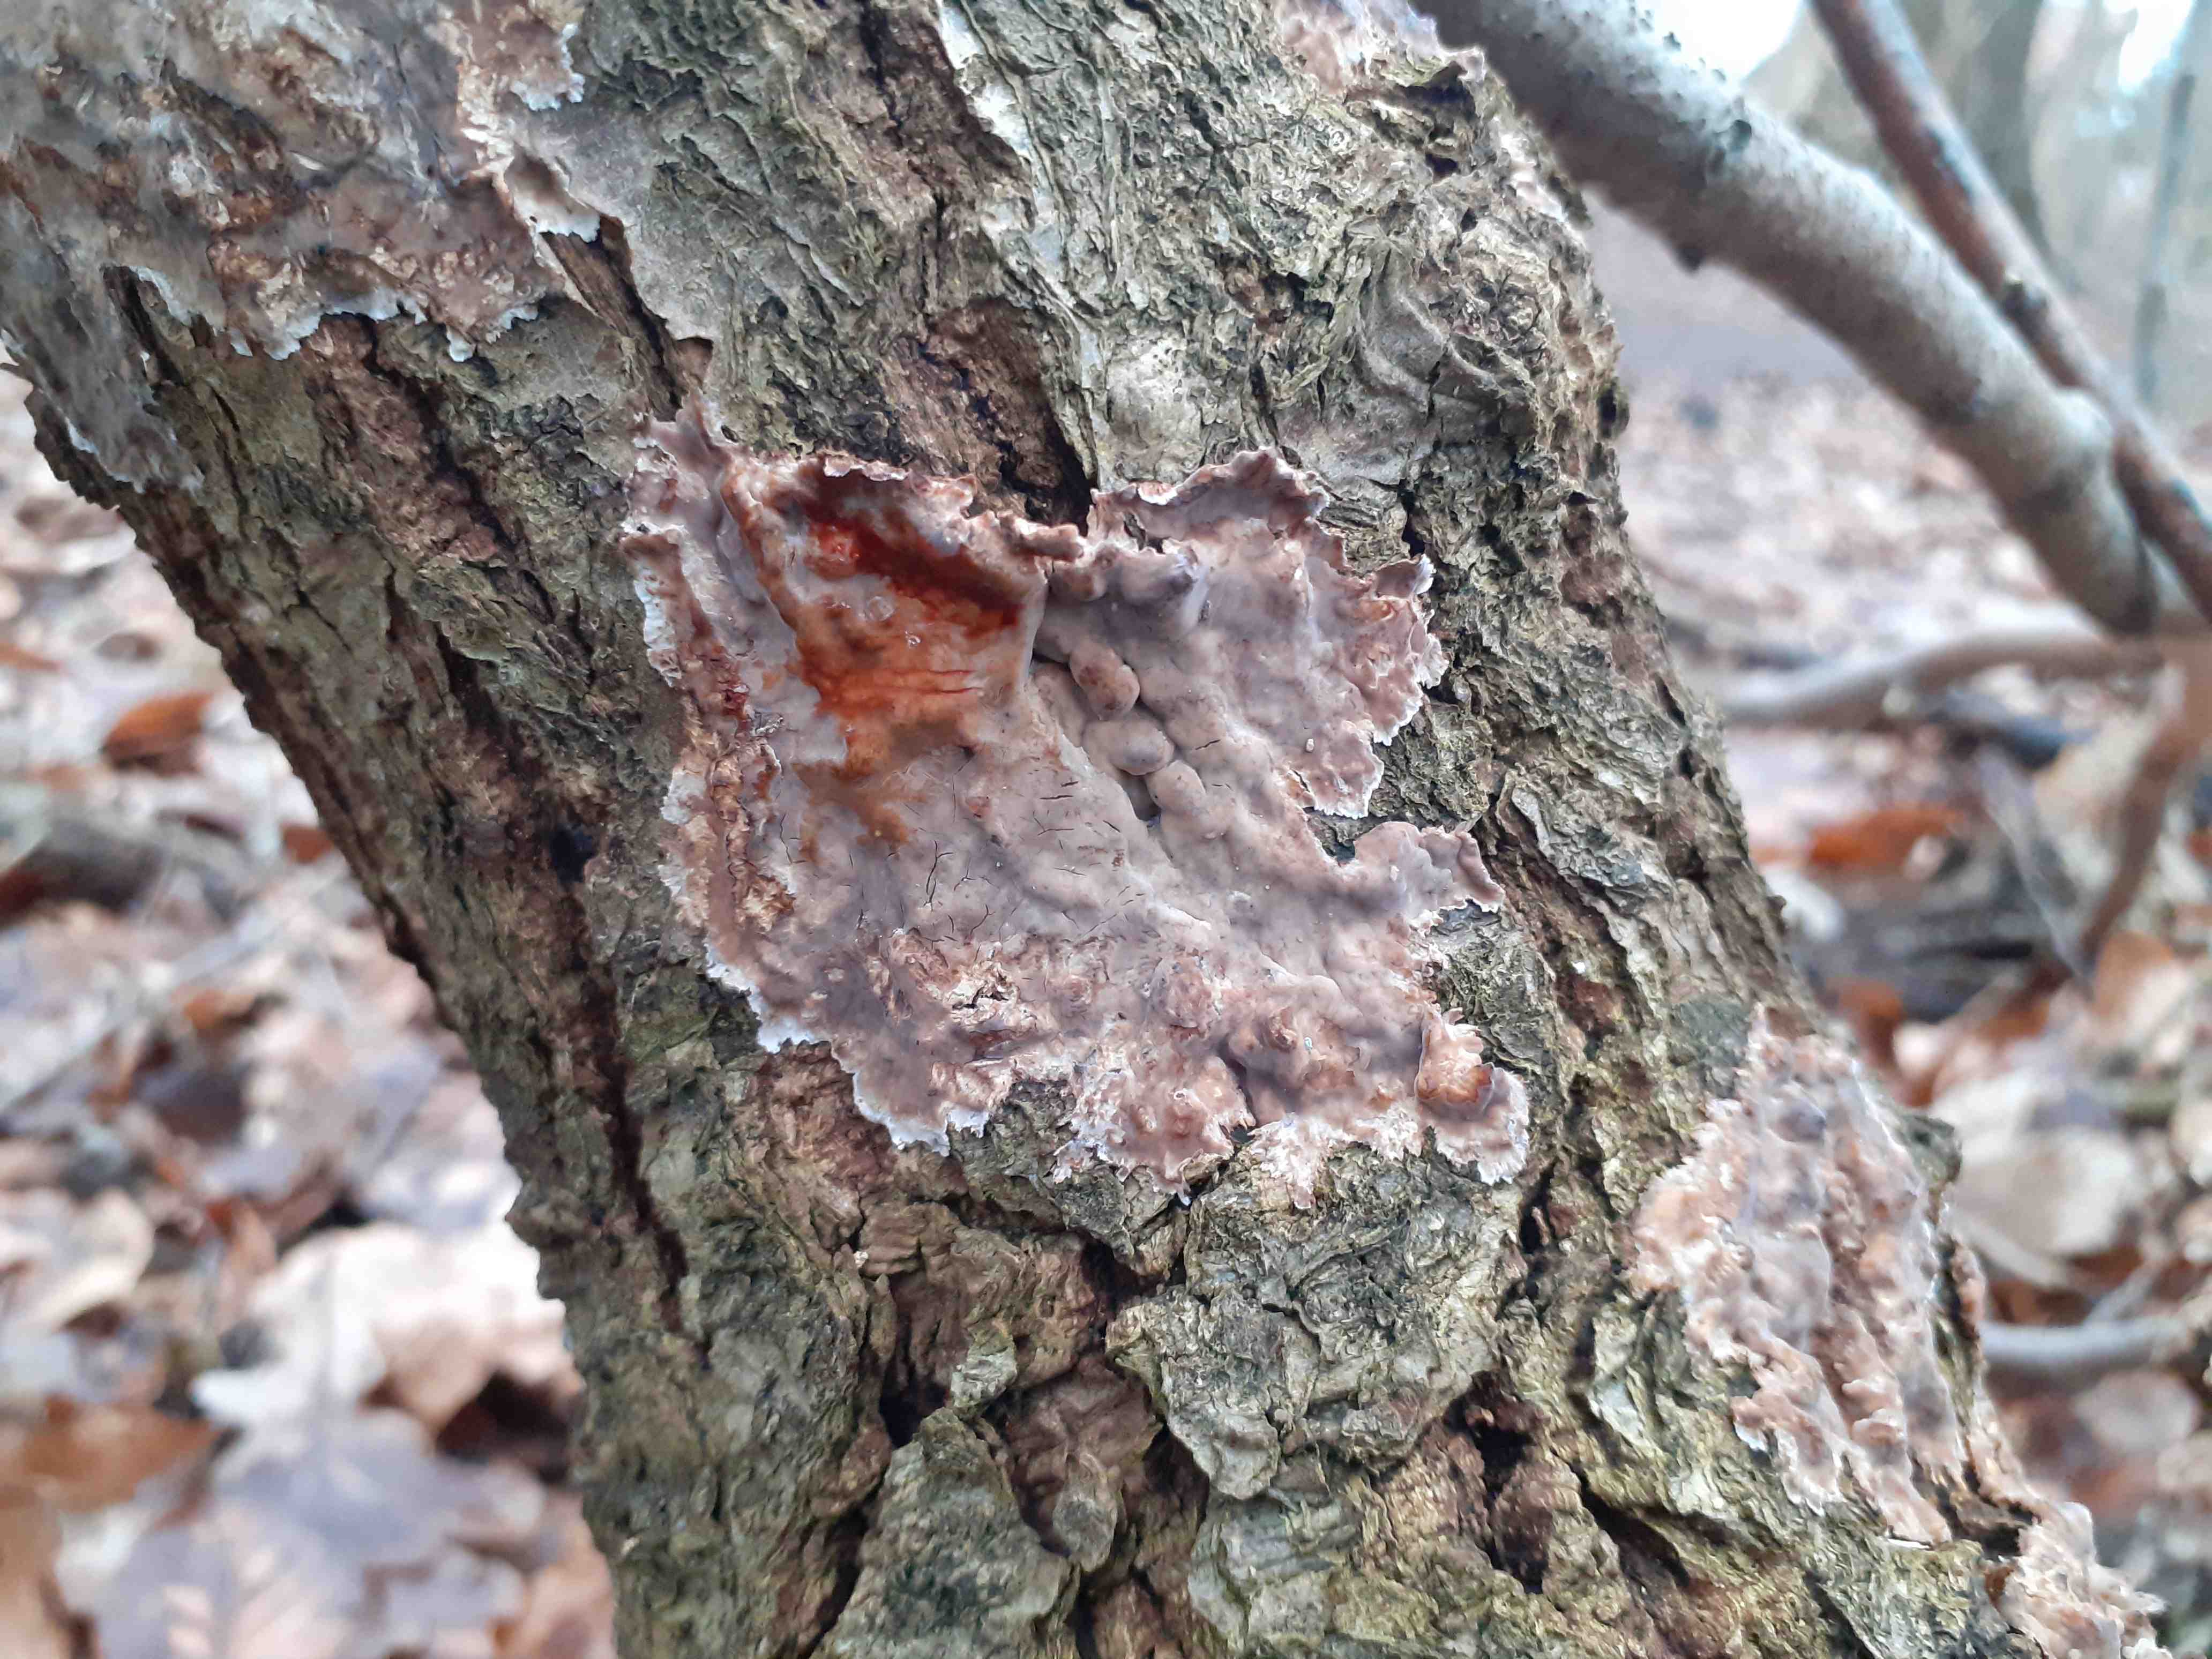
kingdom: Fungi
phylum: Basidiomycota
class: Agaricomycetes
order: Russulales
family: Stereaceae
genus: Stereum
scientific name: Stereum gausapatum
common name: tynd lædersvamp
